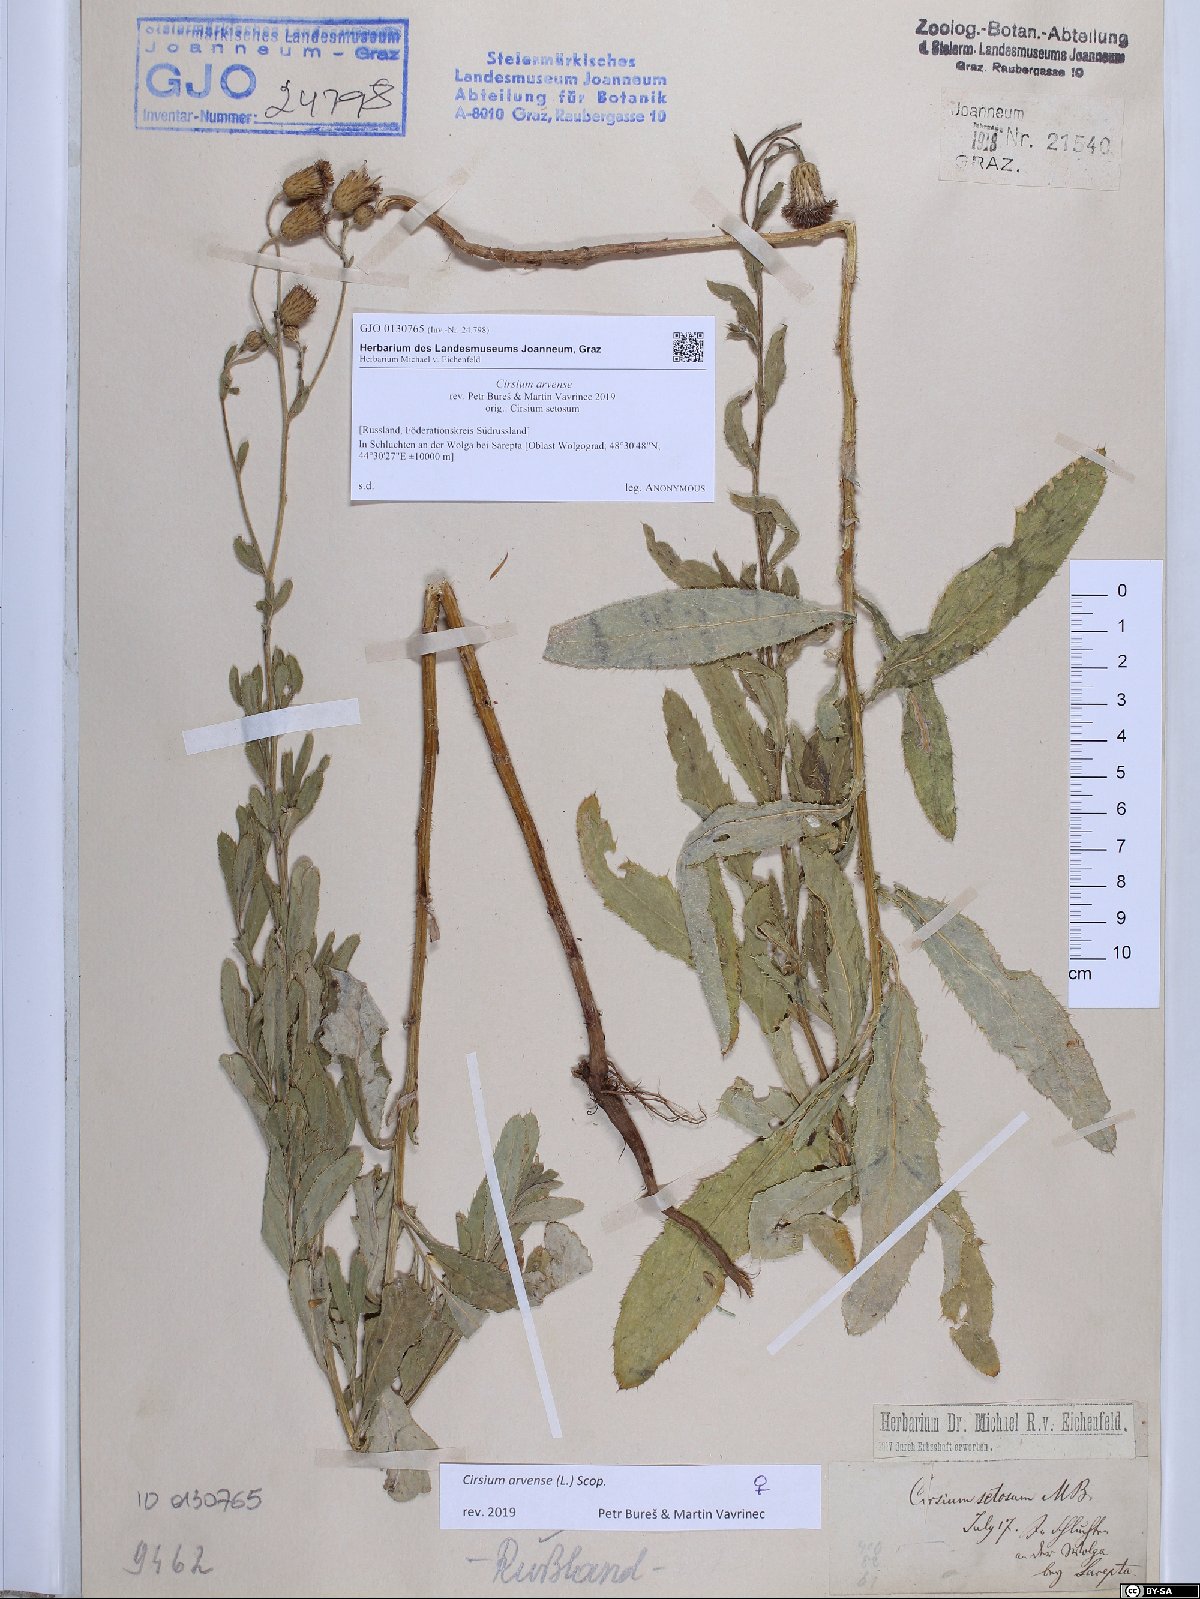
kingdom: Plantae
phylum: Tracheophyta
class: Magnoliopsida
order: Asterales
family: Asteraceae
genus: Cirsium
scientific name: Cirsium arvense
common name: Creeping thistle
